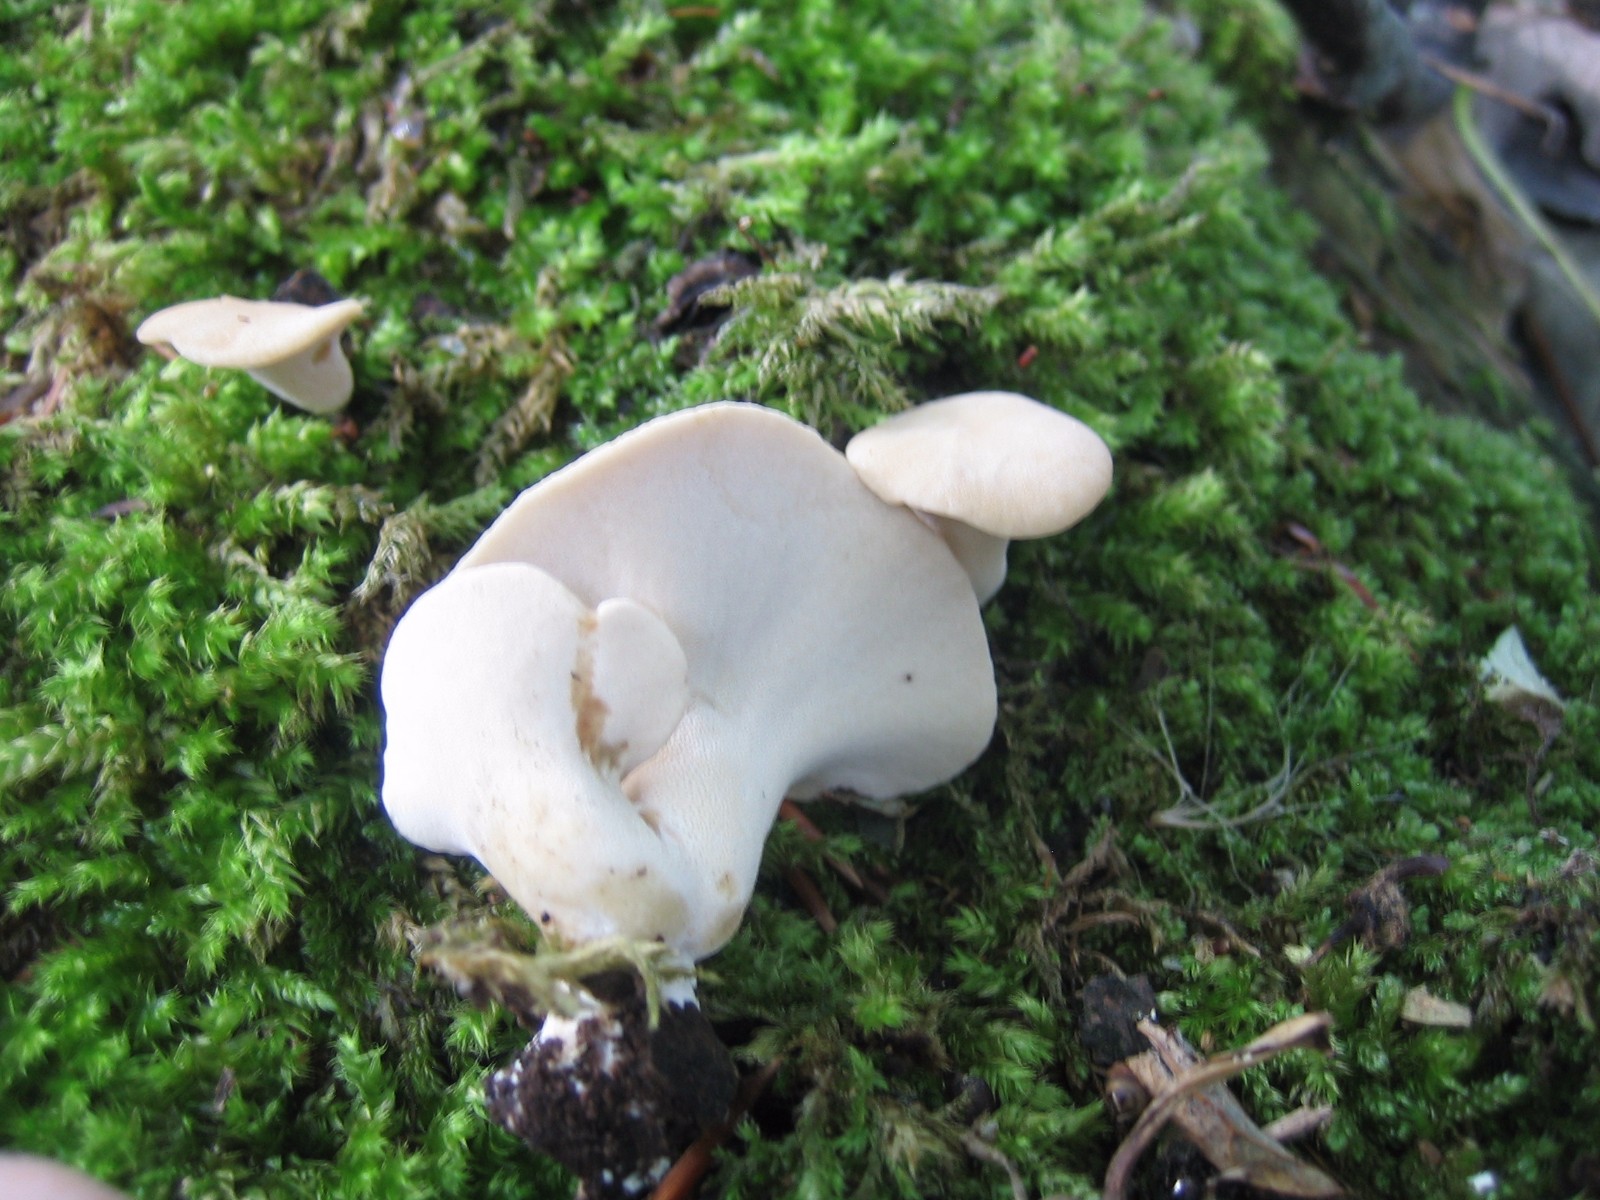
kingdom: Fungi
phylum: Basidiomycota
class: Agaricomycetes
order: Polyporales
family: Polyporaceae
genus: Cerioporus
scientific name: Cerioporus varius
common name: foranderlig stilkporesvamp
